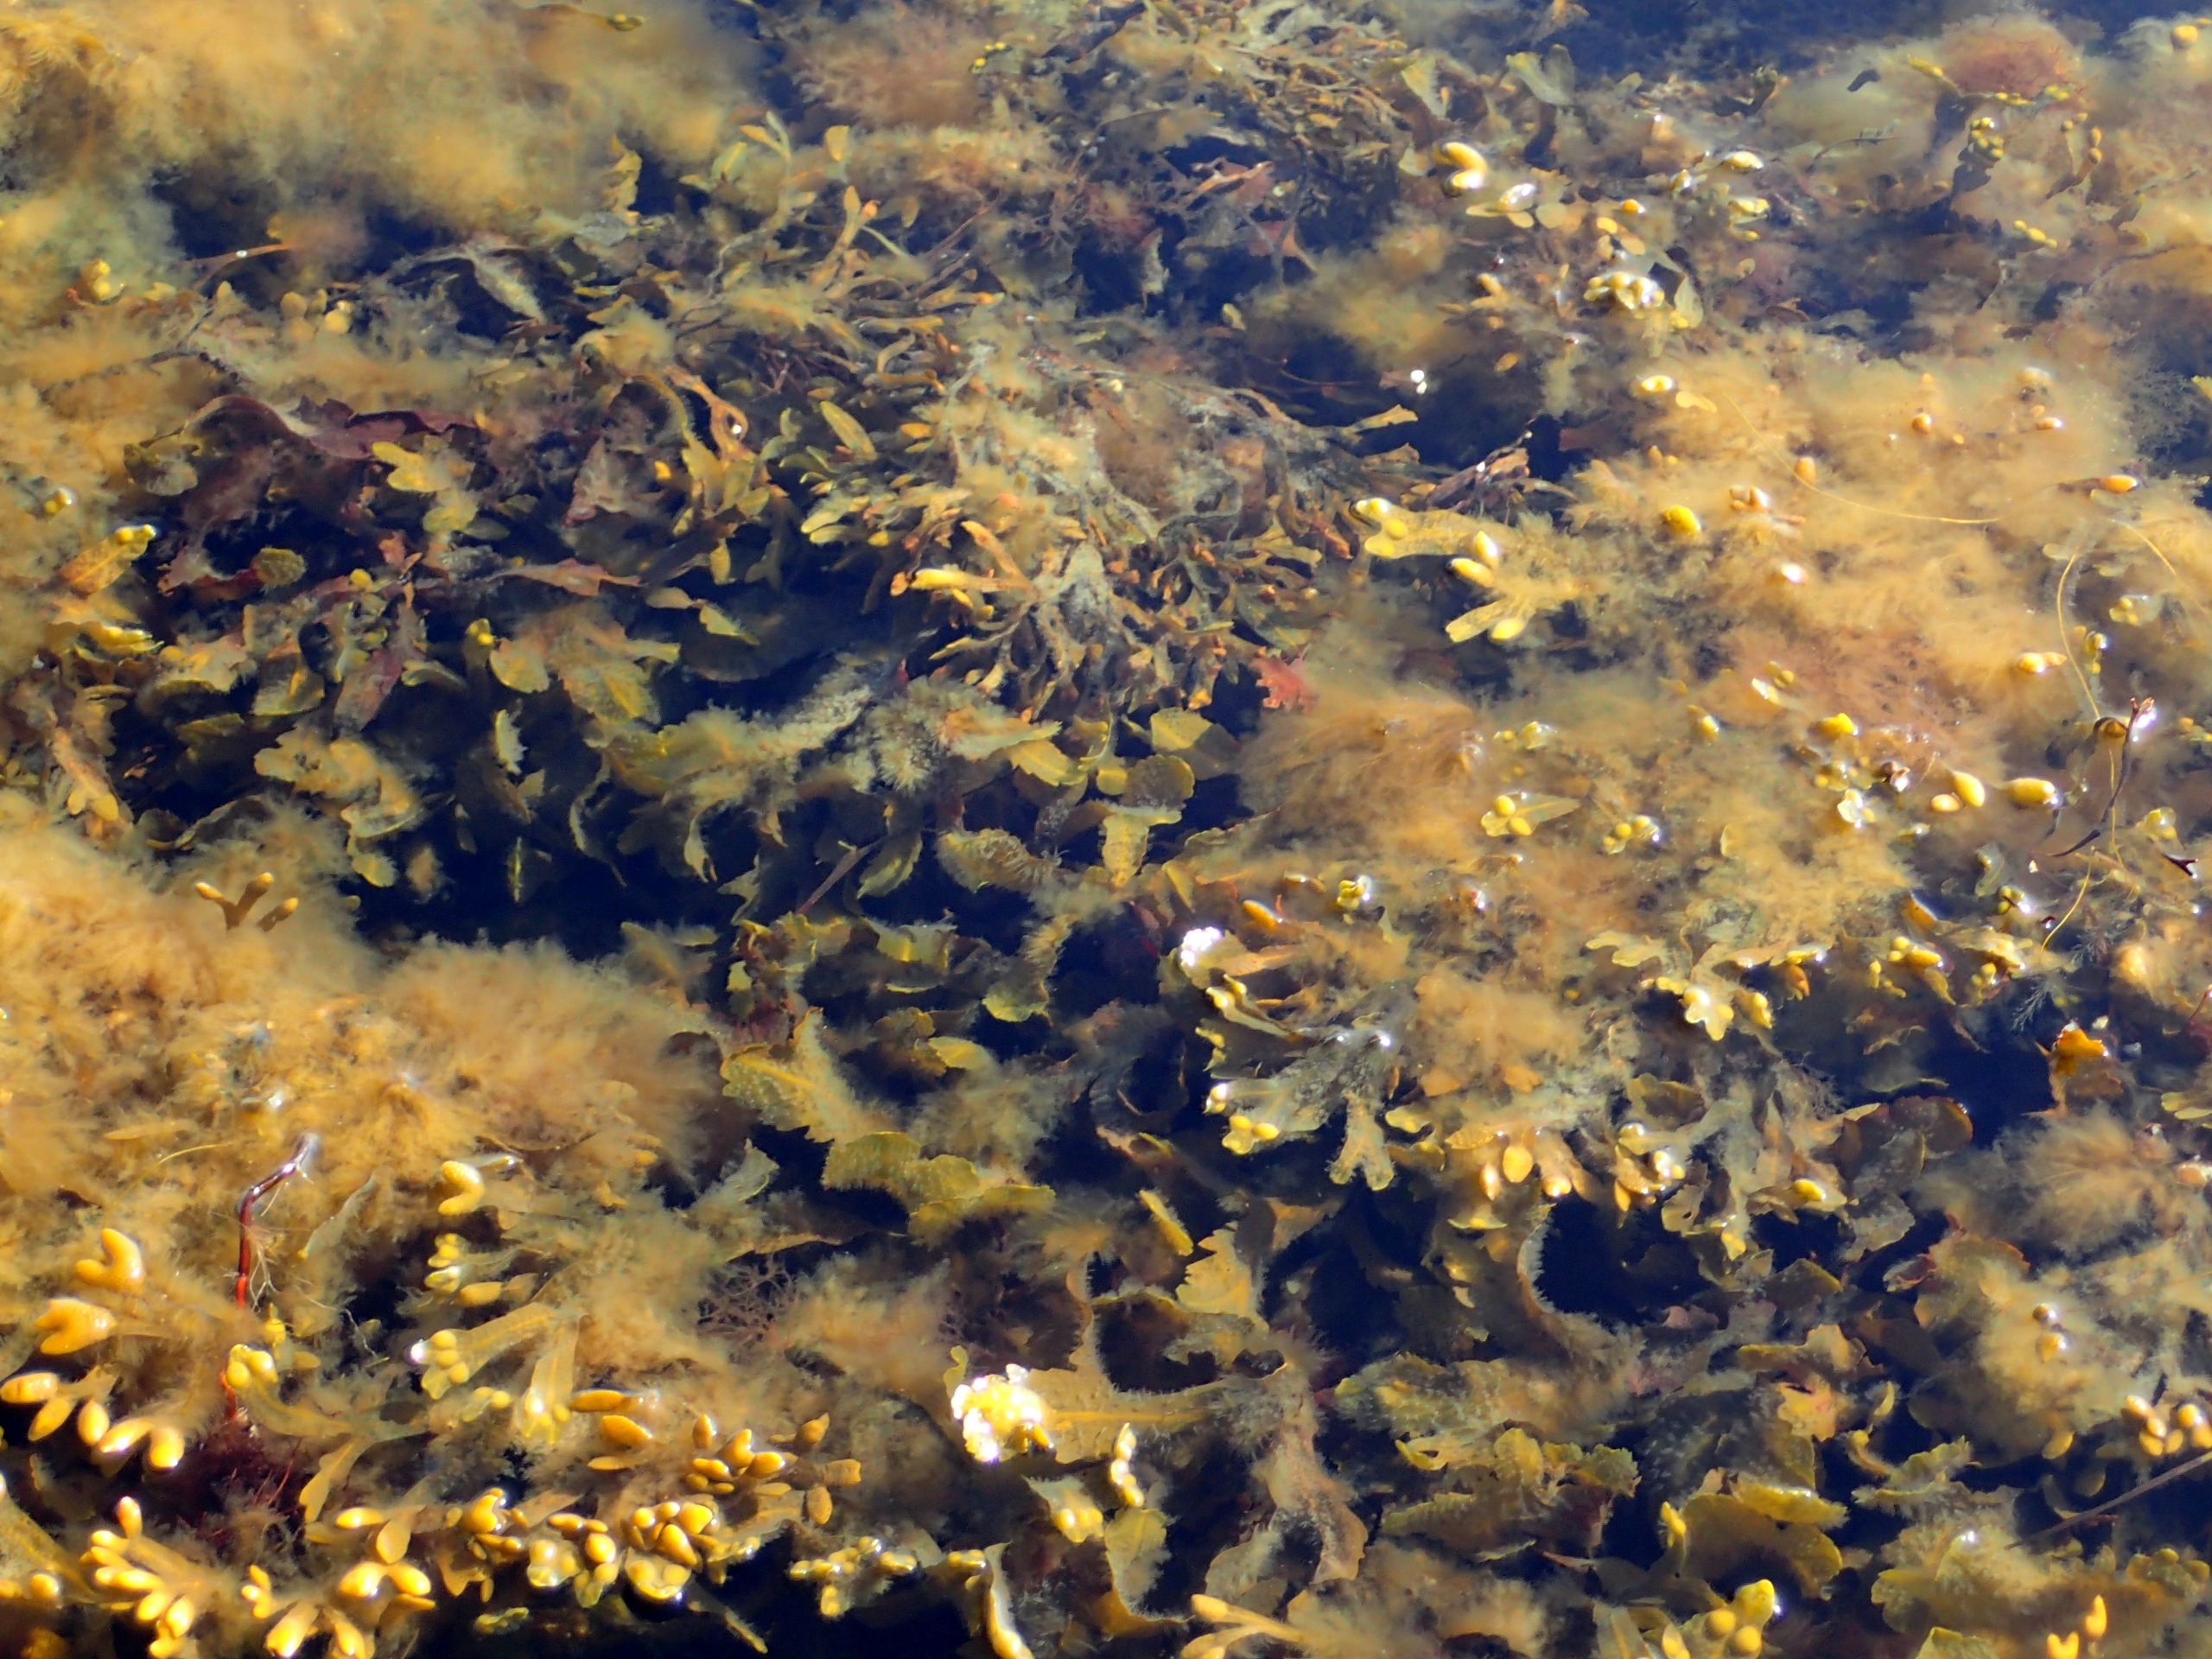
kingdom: Chromista
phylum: Ochrophyta
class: Phaeophyceae
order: Fucales
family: Fucaceae
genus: Fucus
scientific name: Fucus vesiculosus
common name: Blæretang
